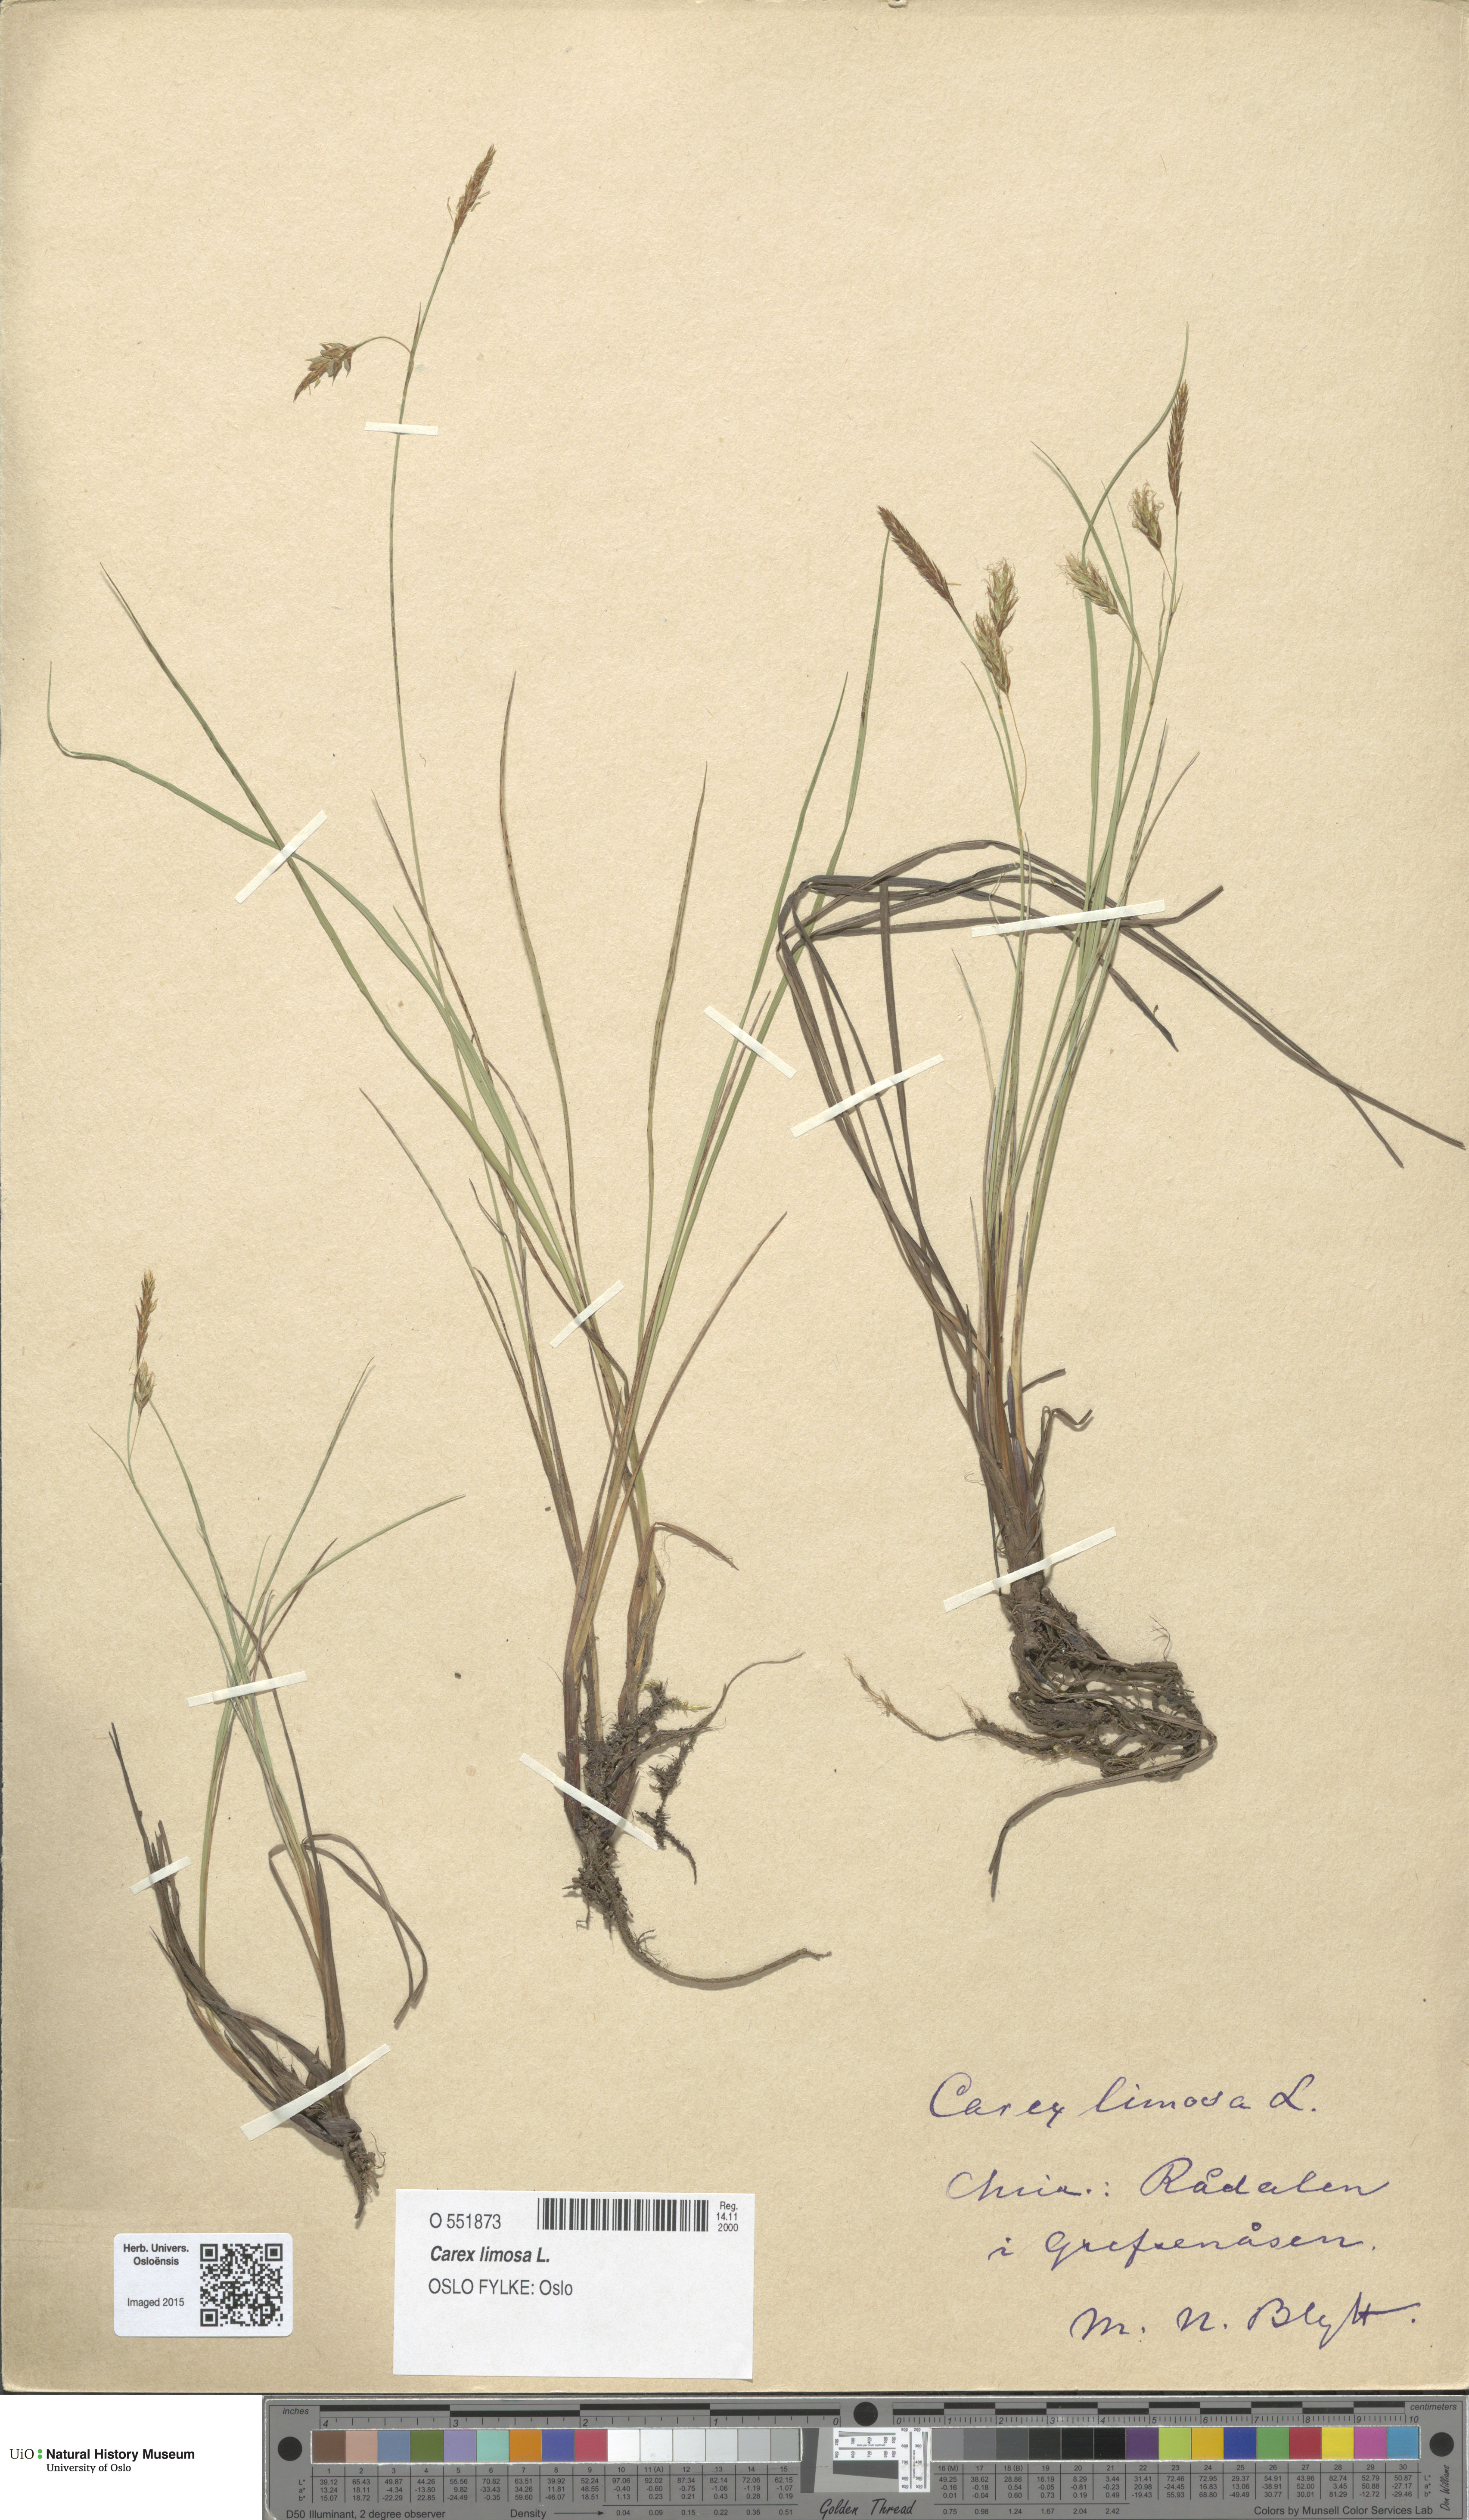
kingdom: Plantae
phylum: Tracheophyta
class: Liliopsida
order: Poales
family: Cyperaceae
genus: Carex
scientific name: Carex limosa
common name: Bog sedge
